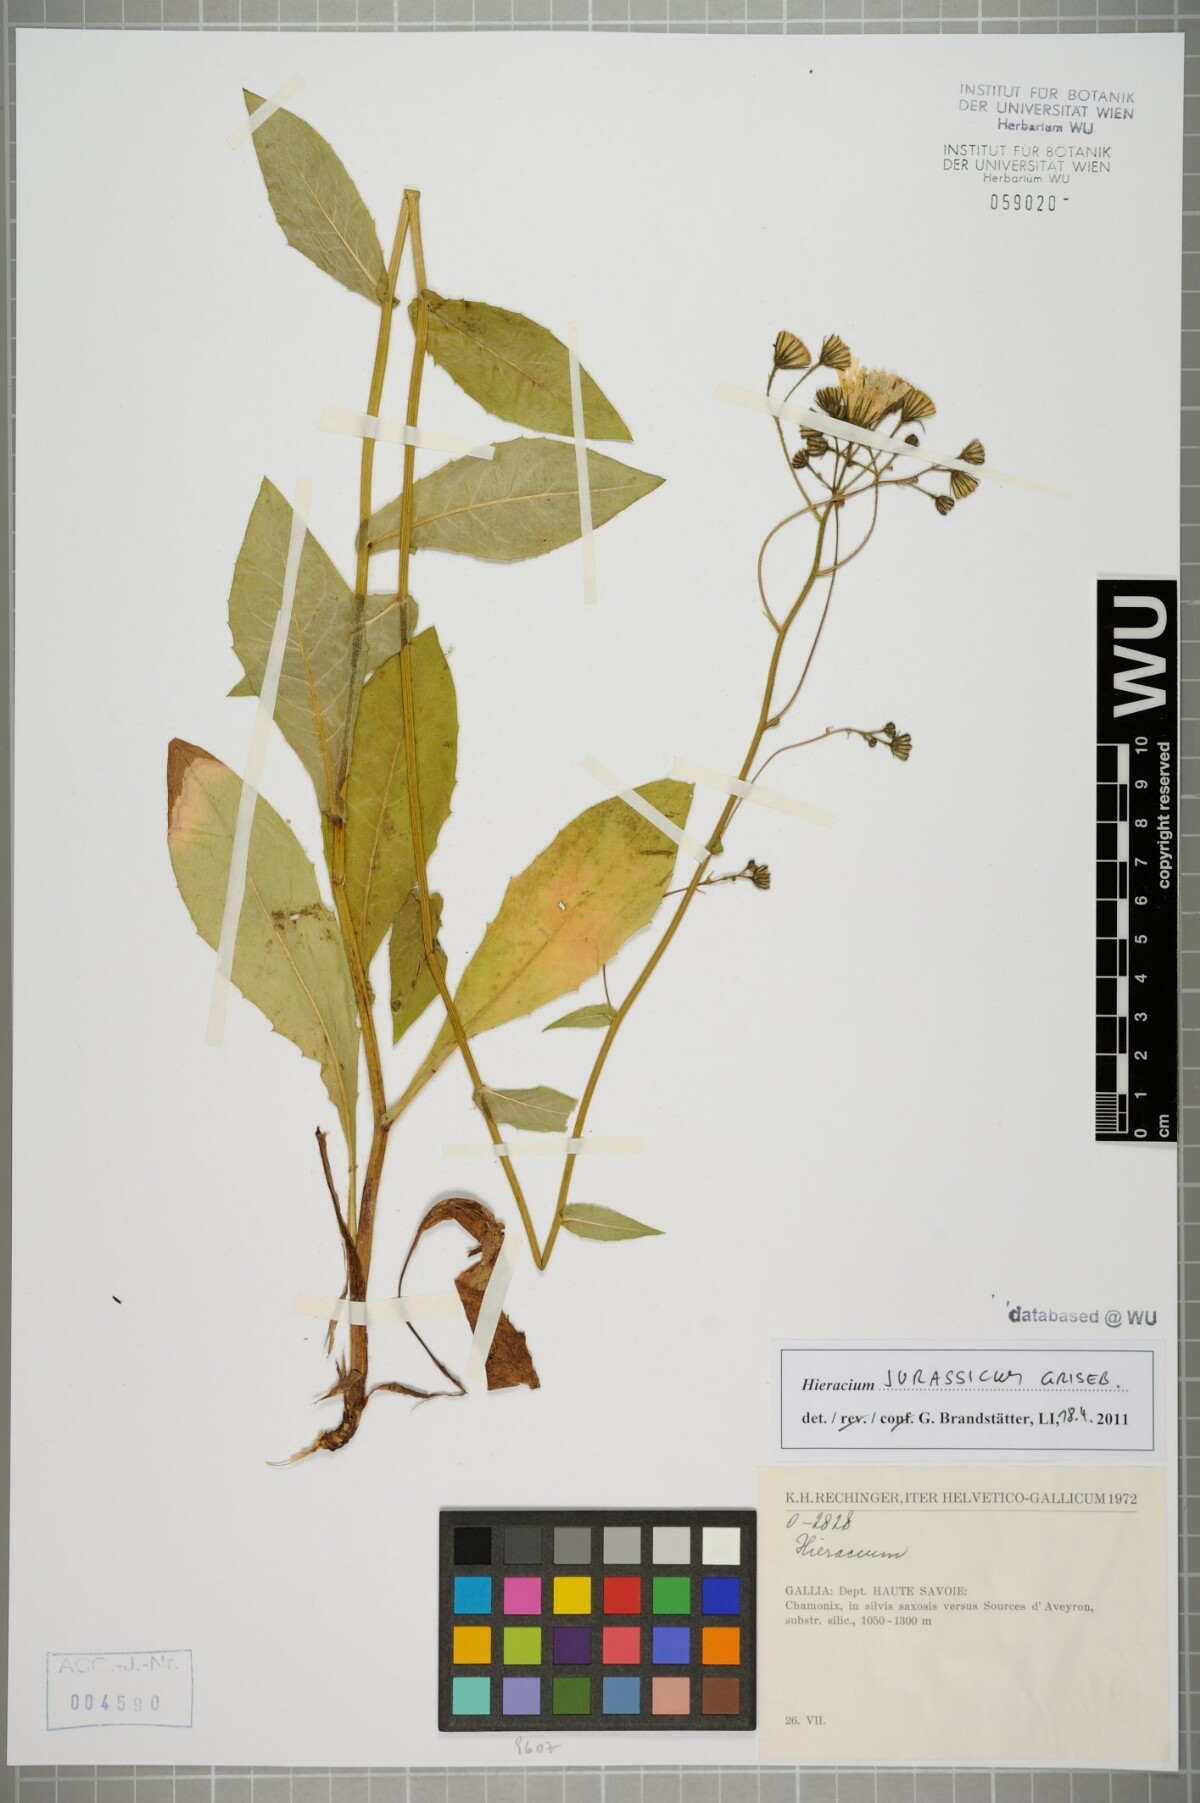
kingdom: Plantae
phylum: Tracheophyta
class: Magnoliopsida
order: Asterales
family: Asteraceae
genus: Hieracium
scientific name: Hieracium jurassicum
